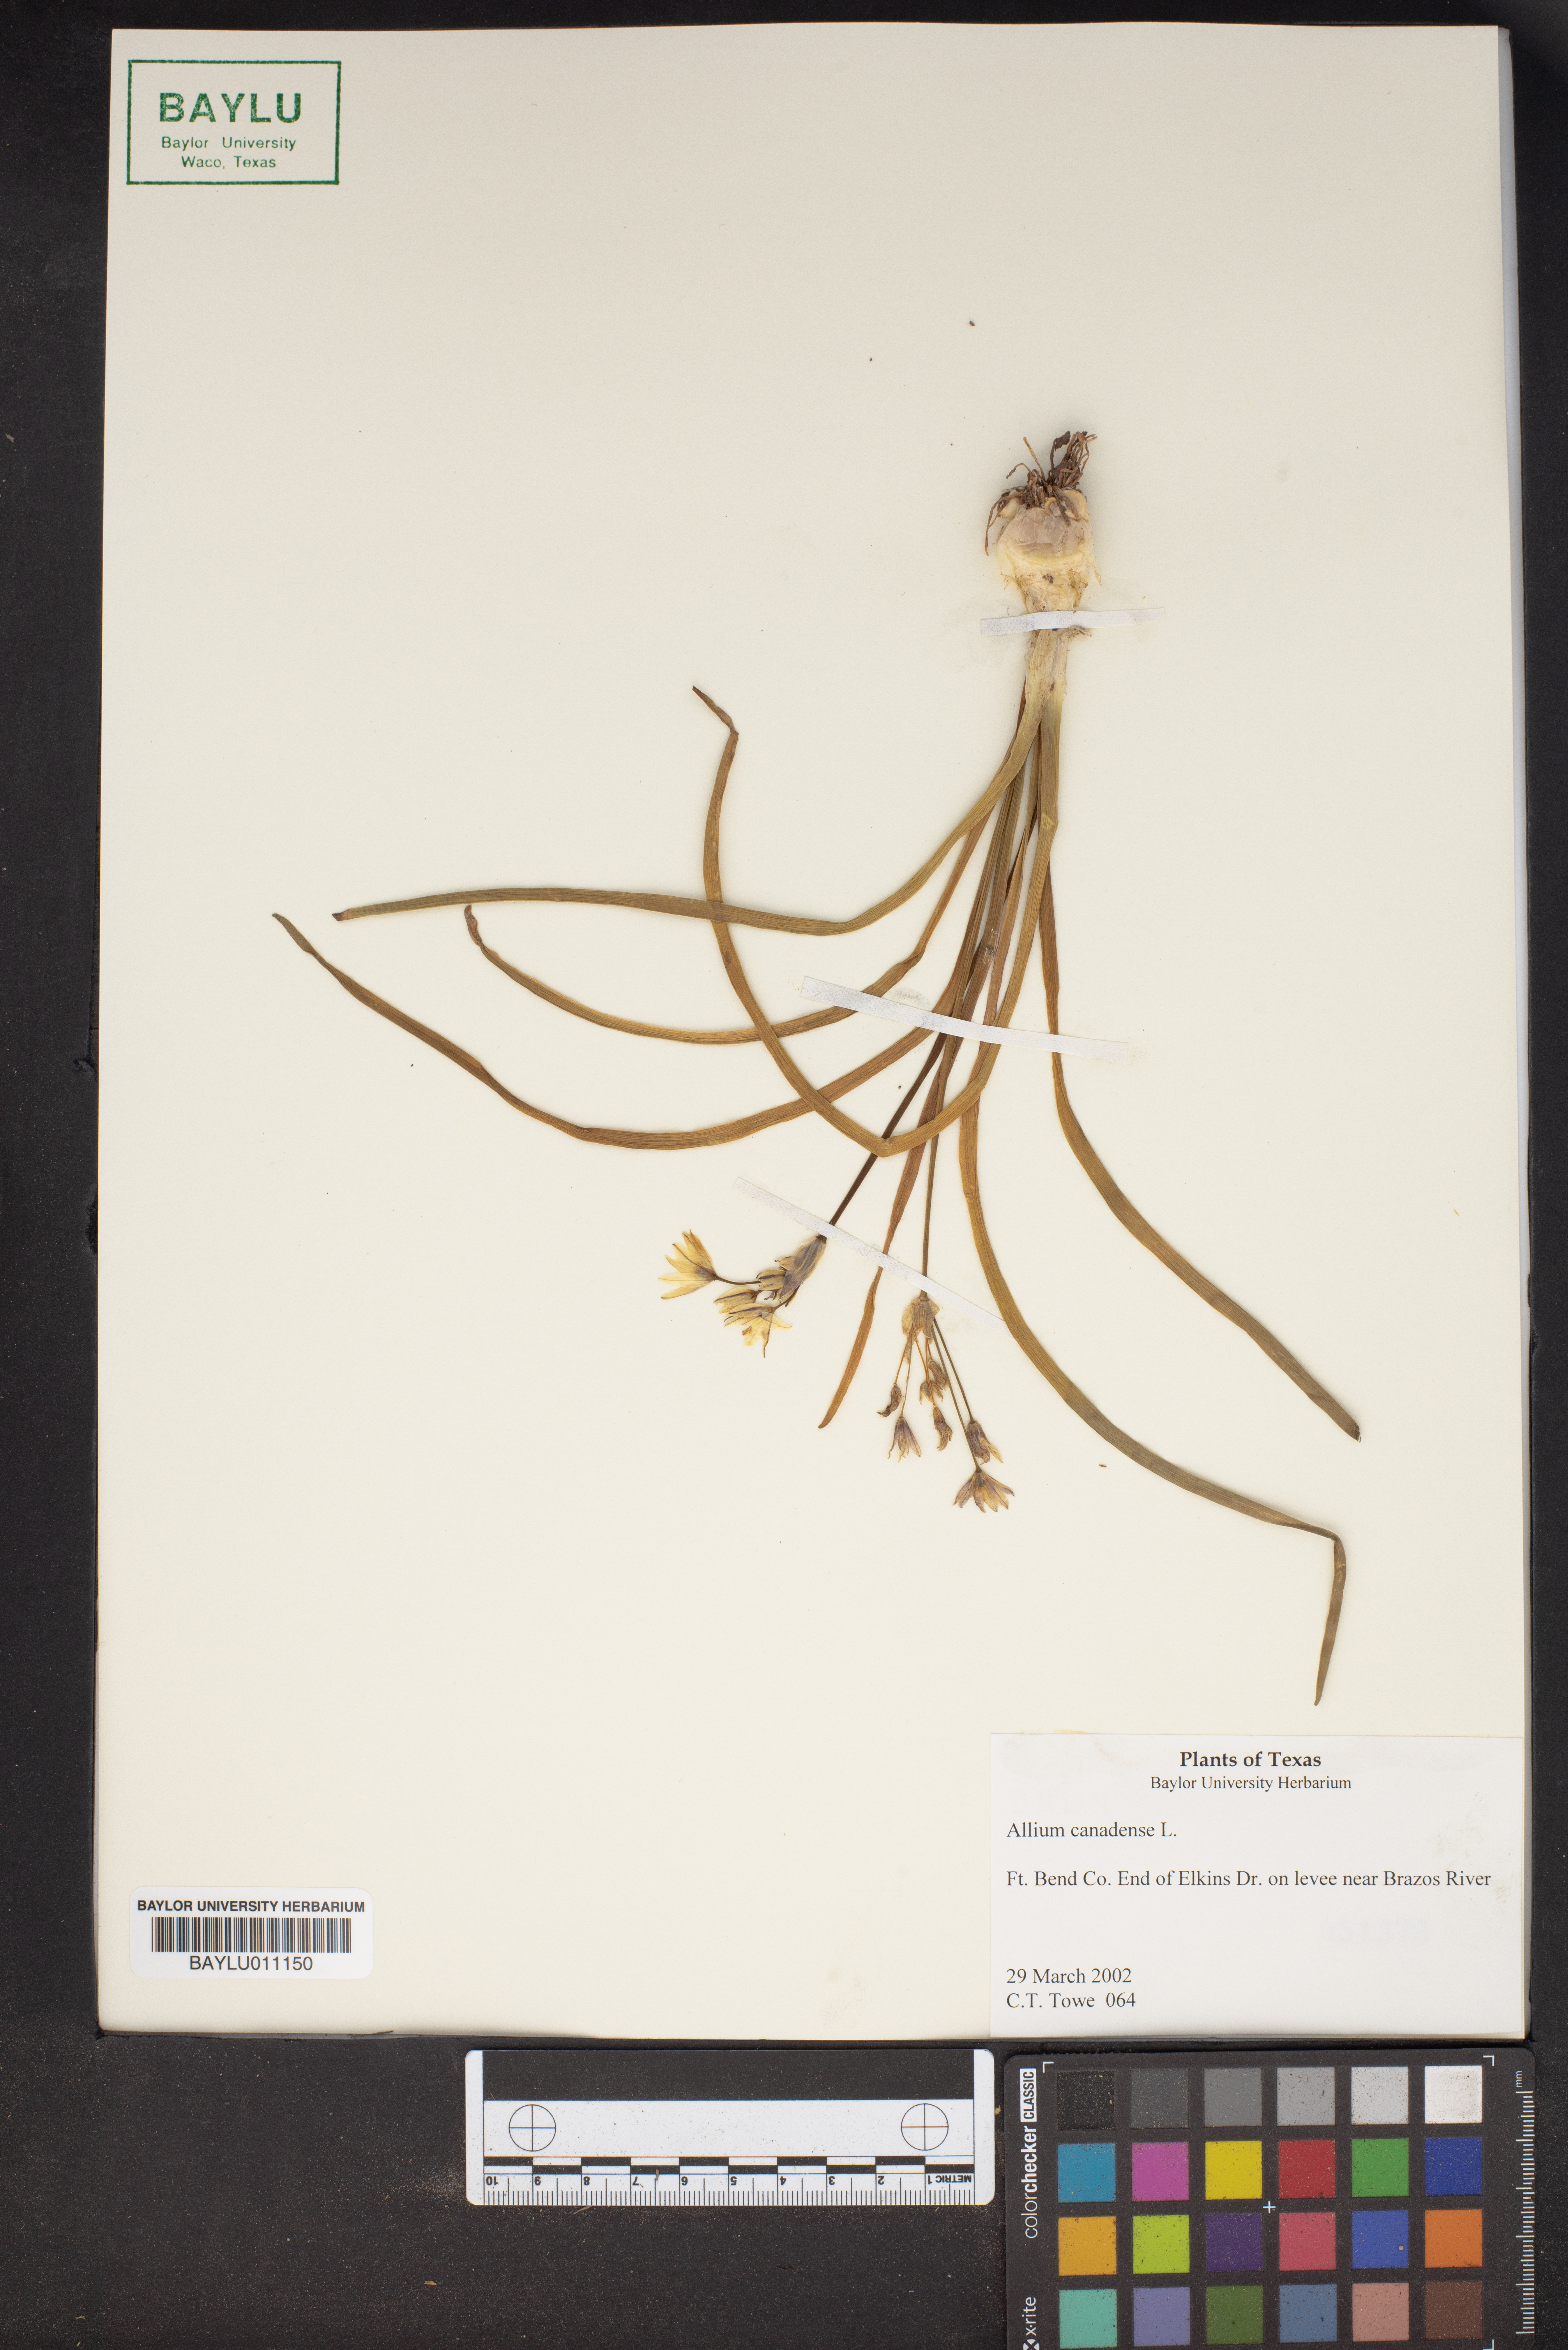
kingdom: Plantae
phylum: Tracheophyta
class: Liliopsida
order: Asparagales
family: Amaryllidaceae
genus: Allium
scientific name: Allium canadense
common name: Meadow garlic
